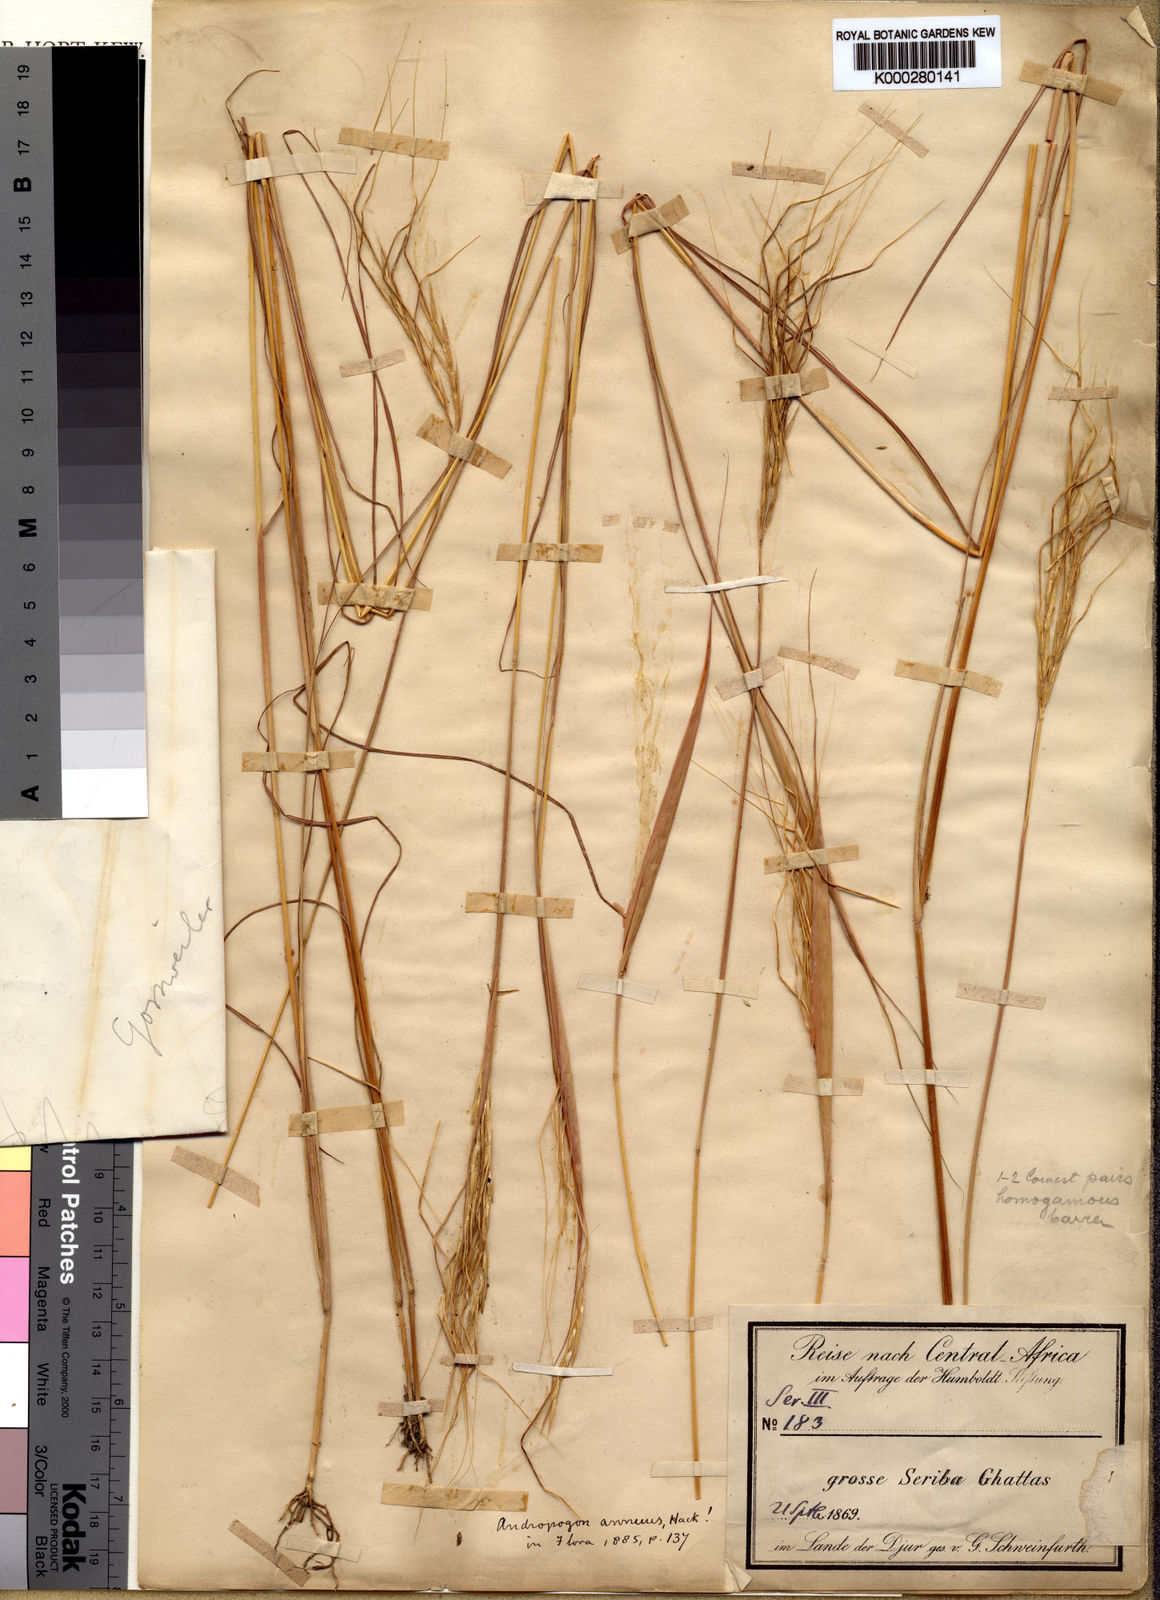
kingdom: Plantae
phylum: Tracheophyta
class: Liliopsida
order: Poales
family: Poaceae
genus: Parahyparrhenia
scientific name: Parahyparrhenia annua
